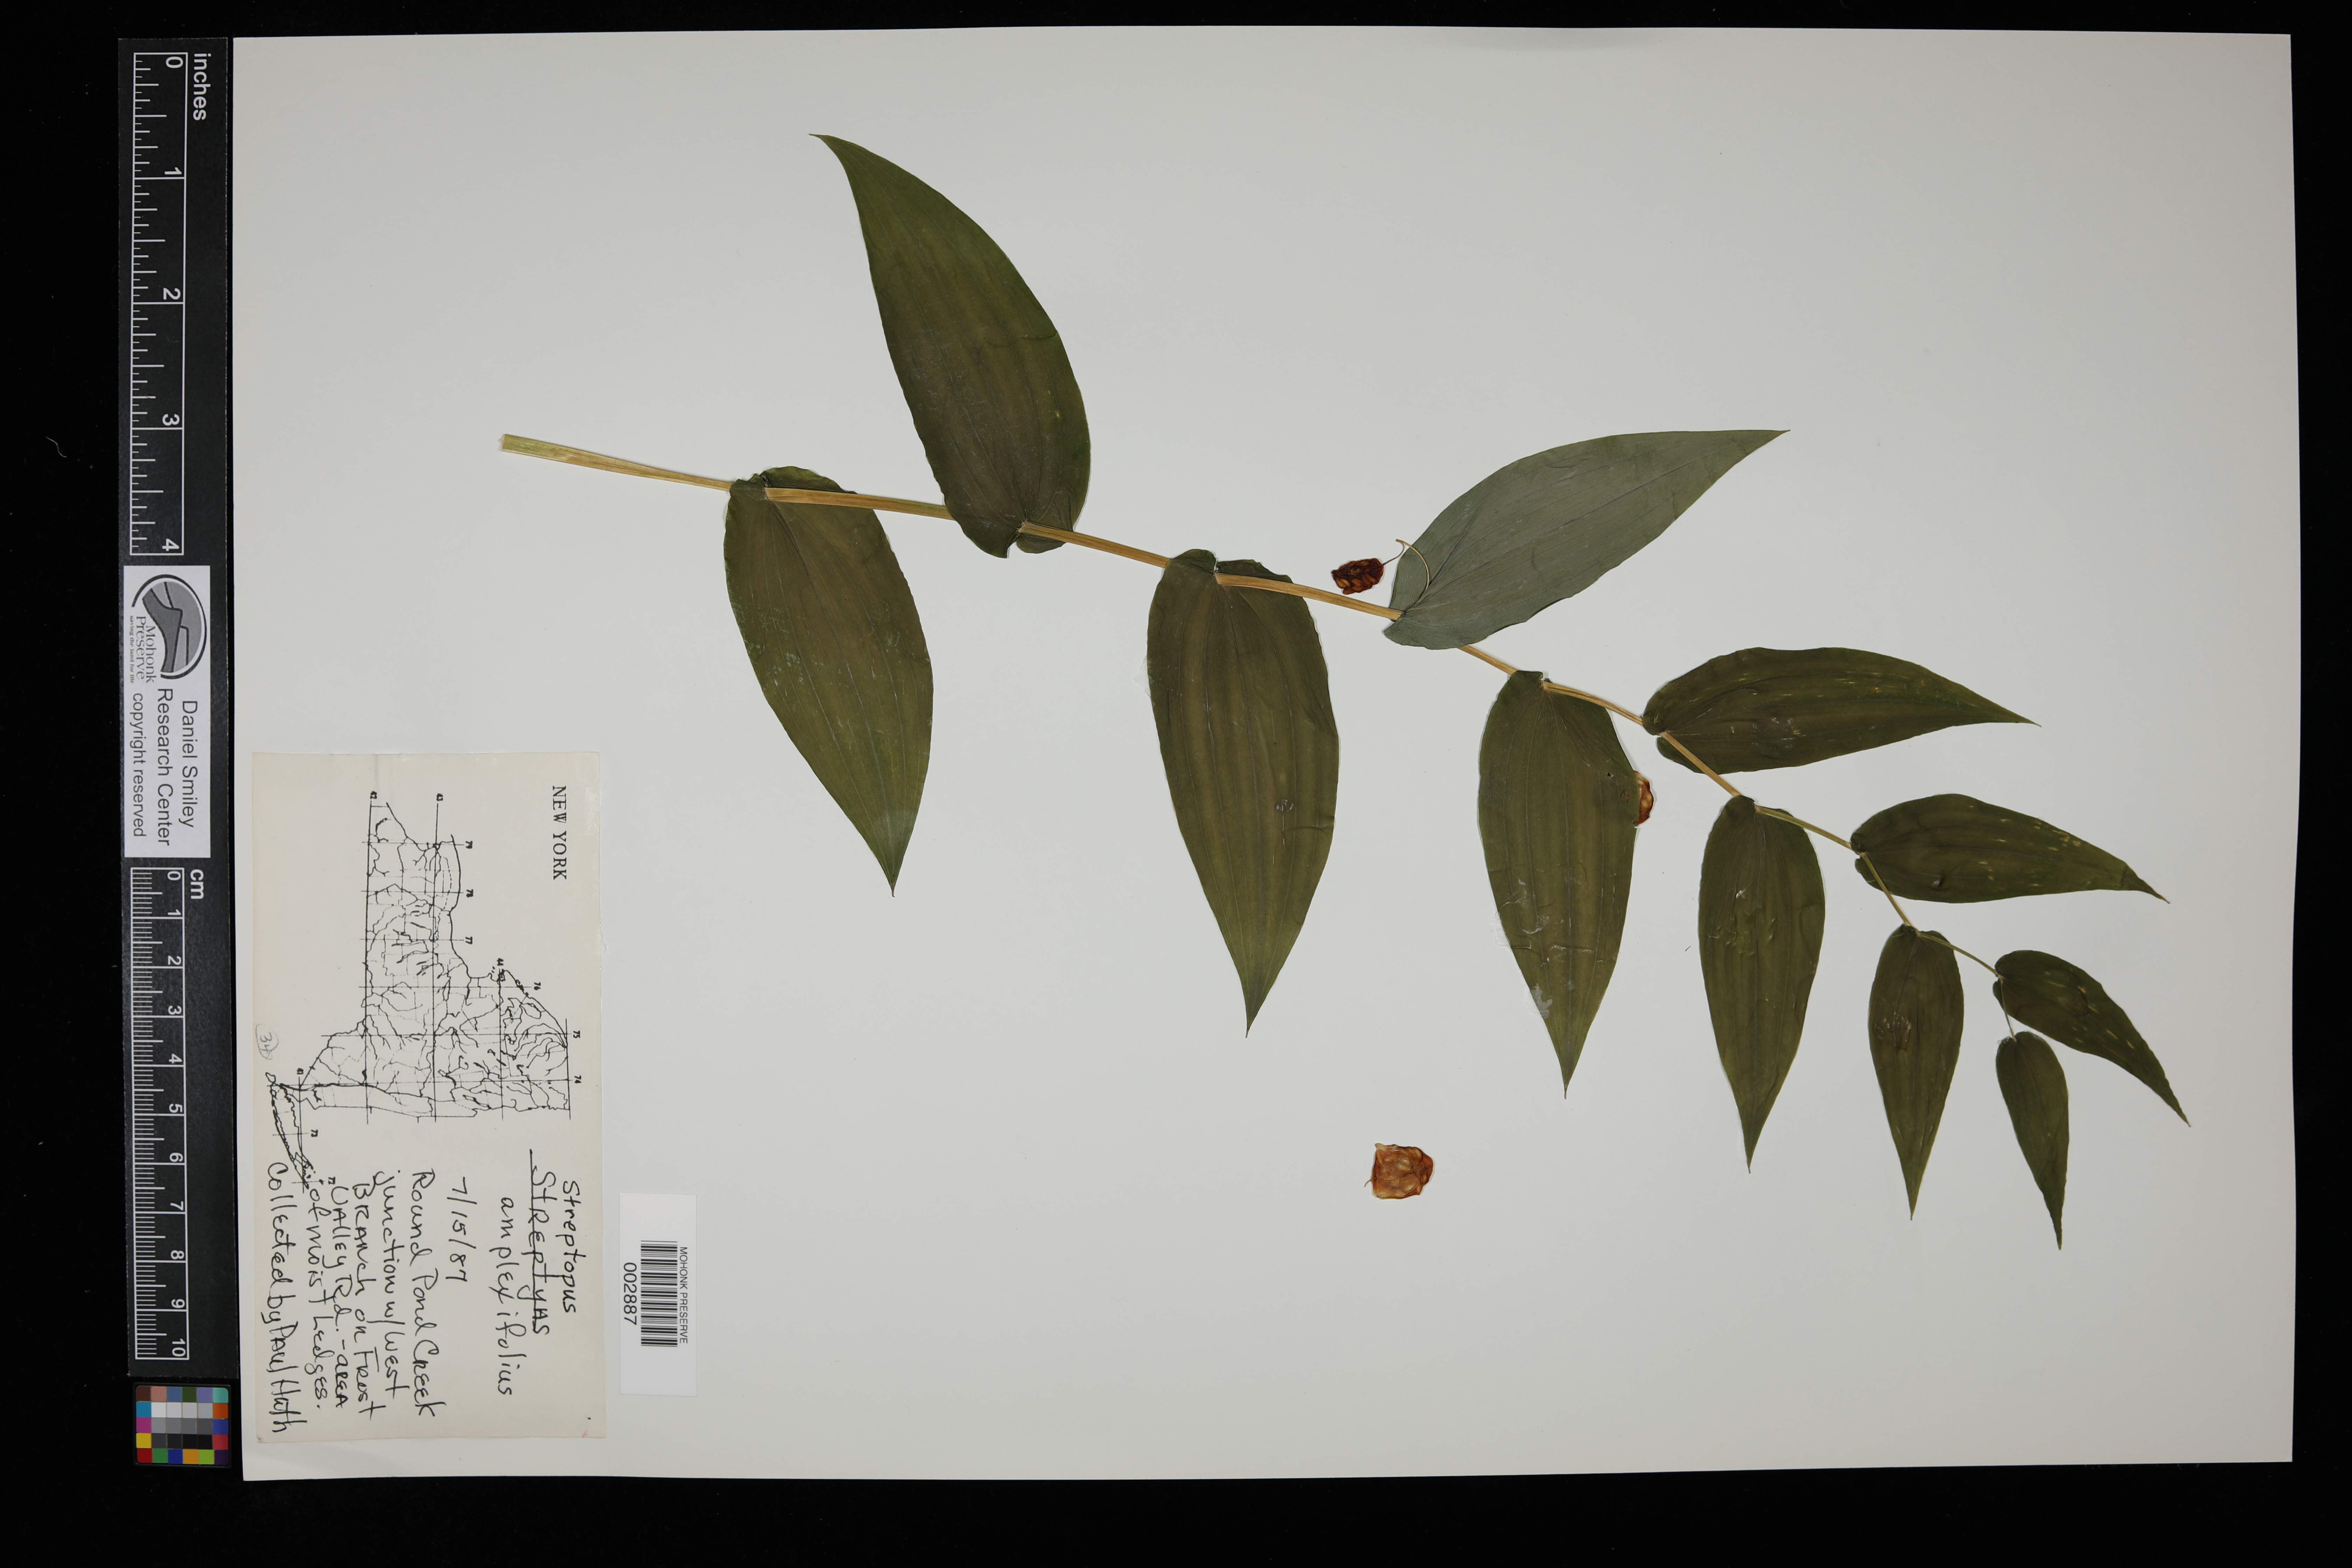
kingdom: Plantae
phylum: Tracheophyta
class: Liliopsida
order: Liliales
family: Liliaceae
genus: Streptopus
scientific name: Streptopus amplexifolius
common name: Clasp twisted stalk
